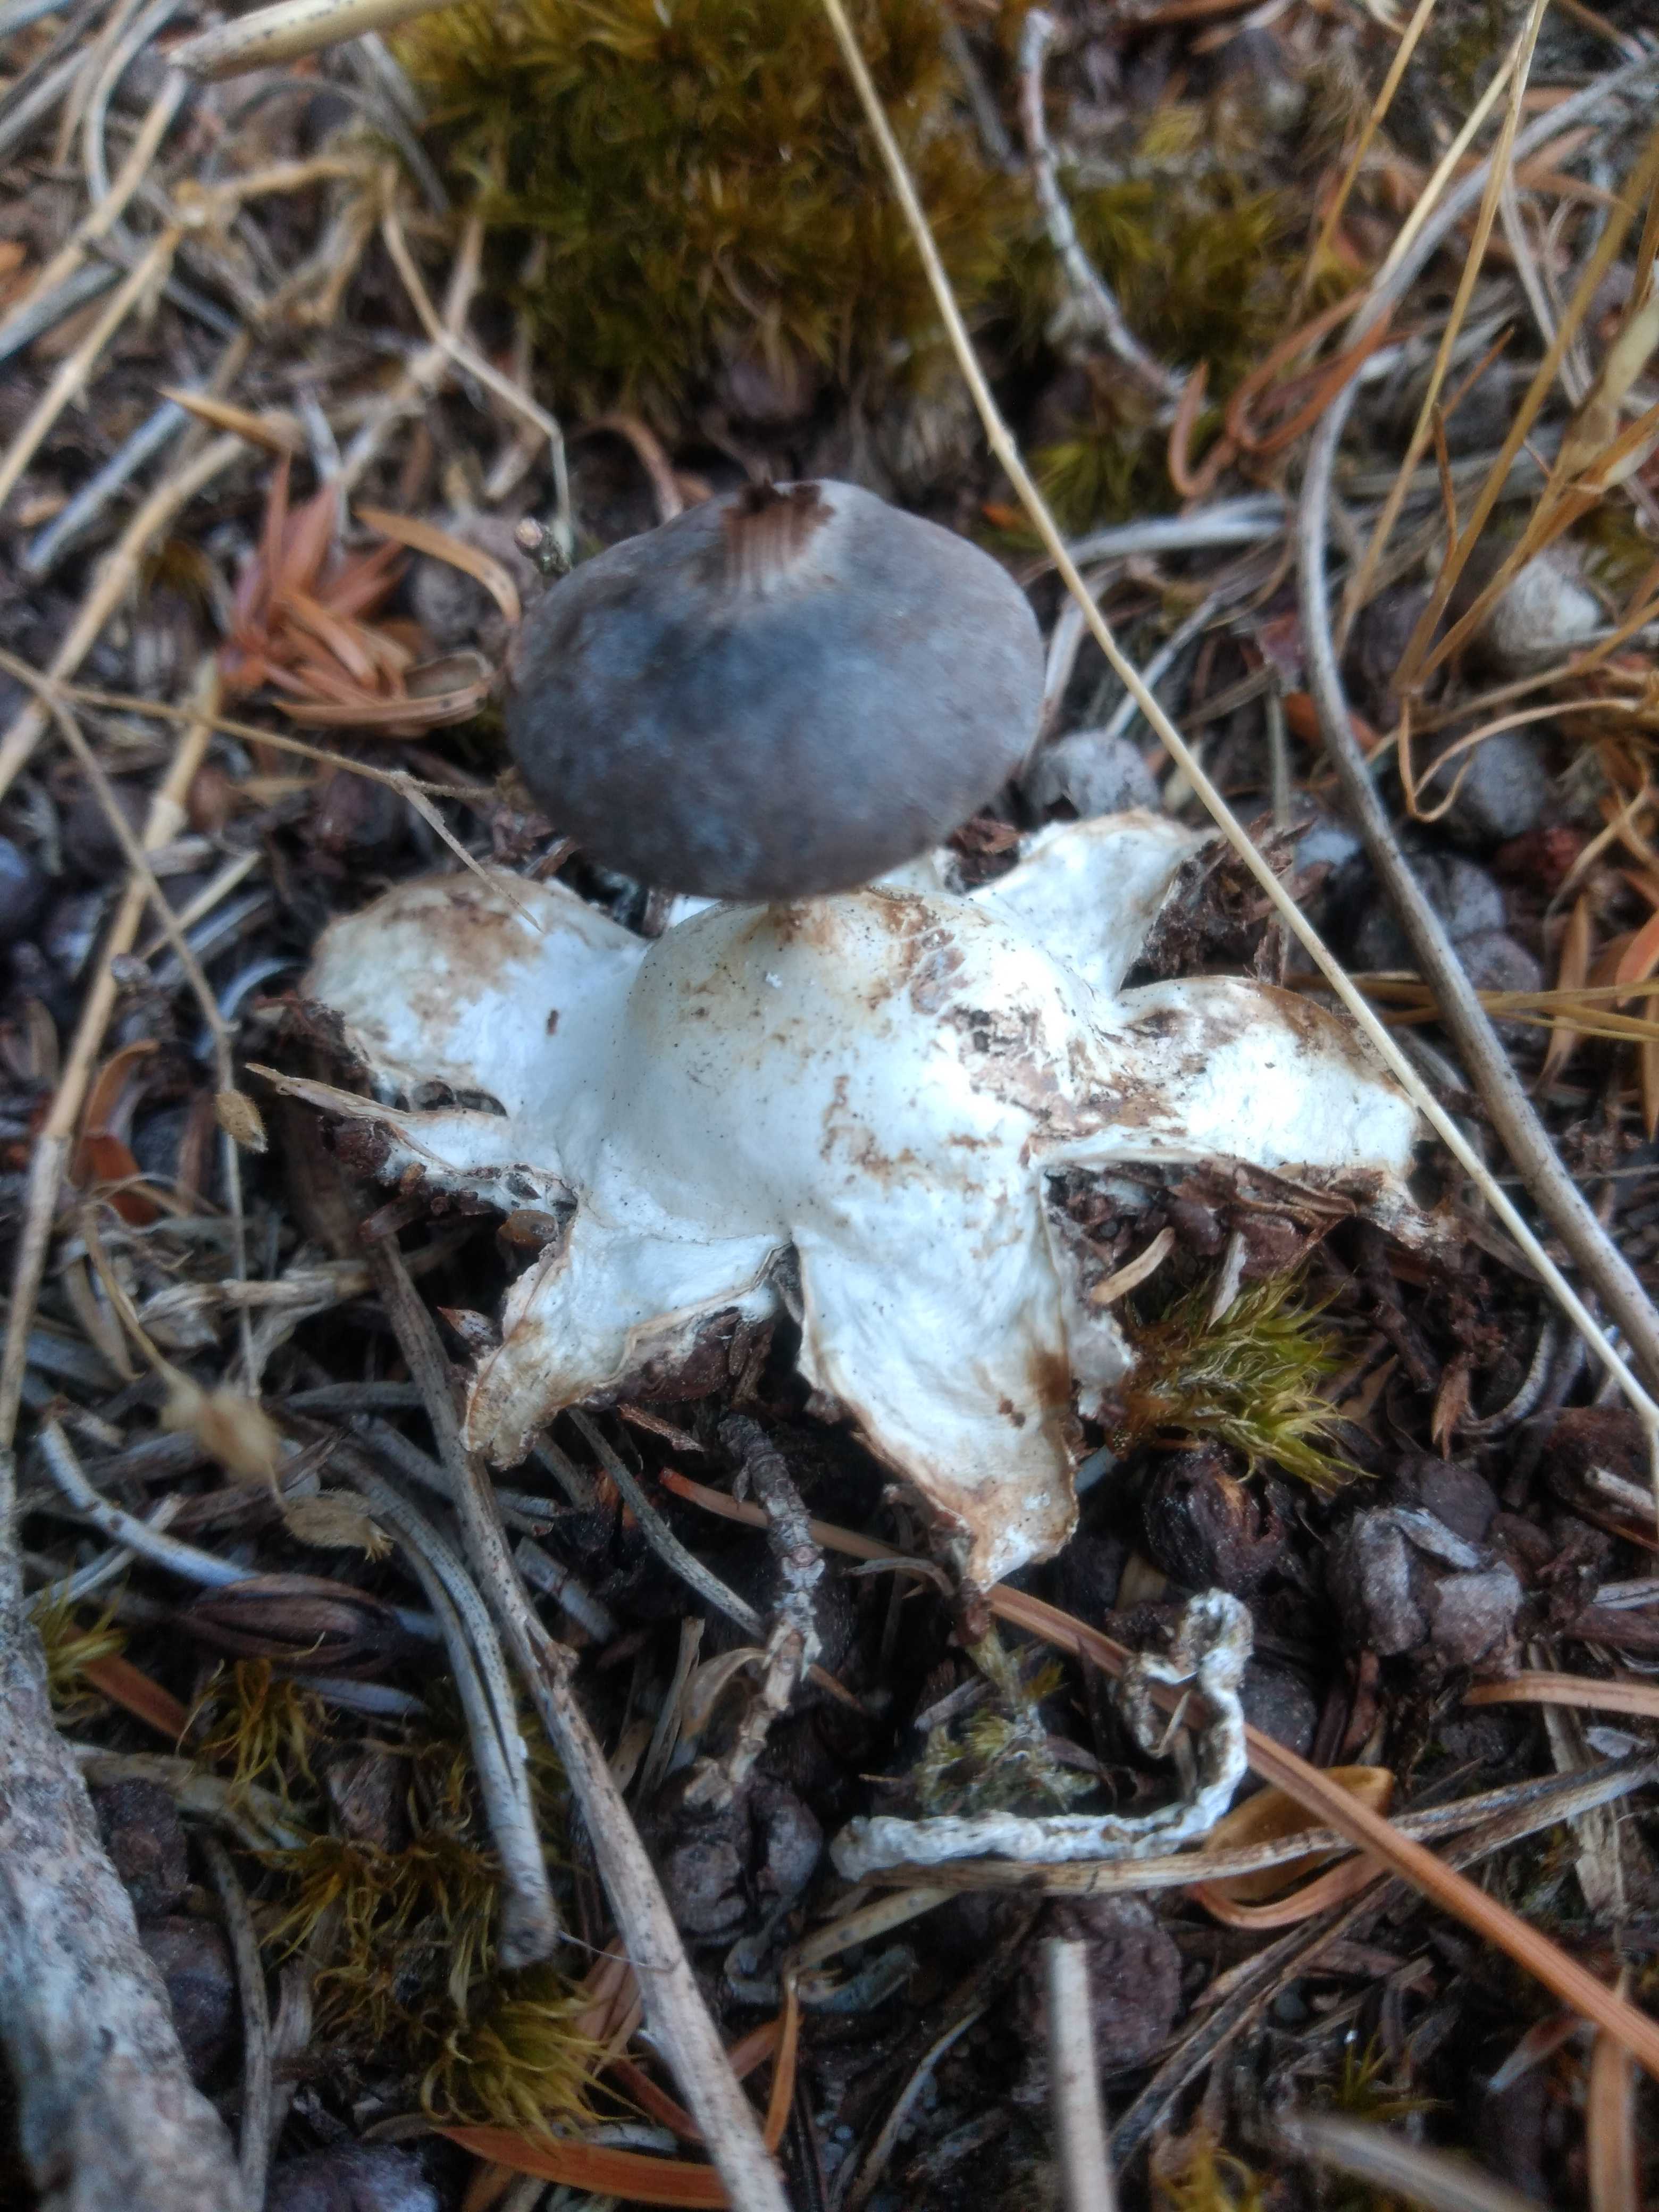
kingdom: Fungi
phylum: Basidiomycota
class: Agaricomycetes
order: Geastrales
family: Geastraceae
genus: Geastrum
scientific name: Geastrum pectinatum
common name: stilket stjernebold
